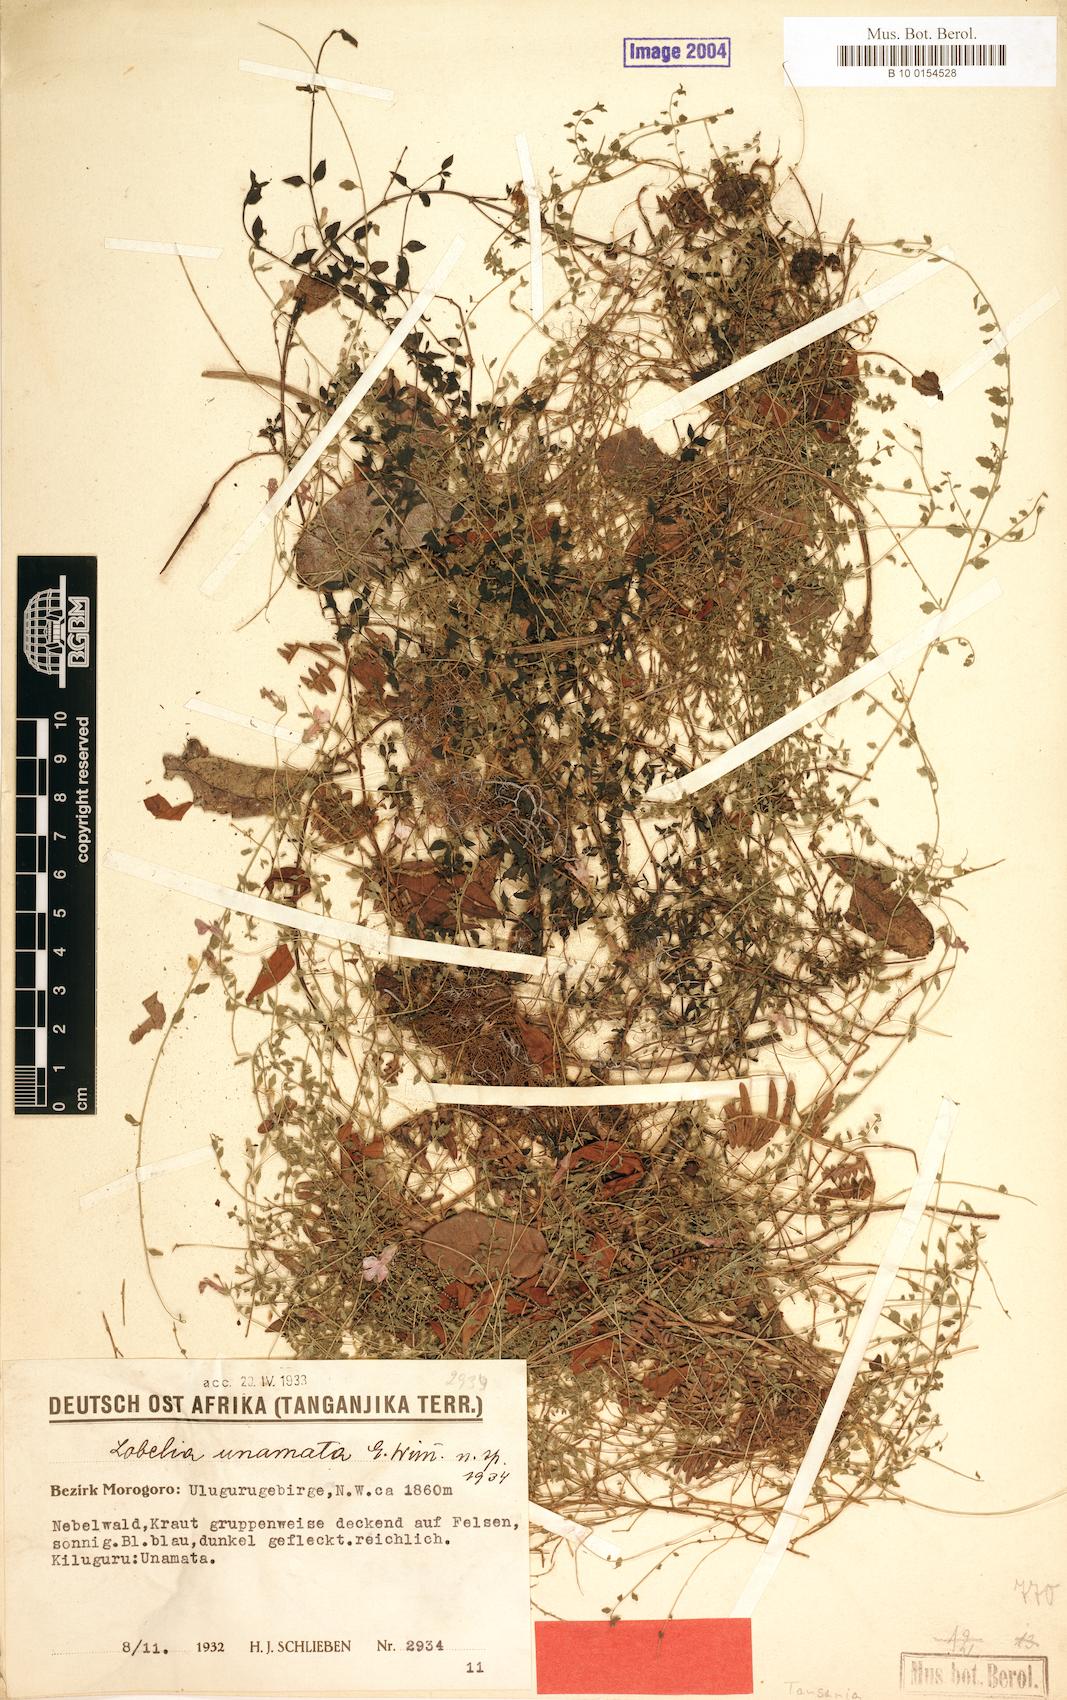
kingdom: Plantae
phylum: Tracheophyta
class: Magnoliopsida
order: Asterales
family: Campanulaceae
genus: Lobelia
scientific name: Lobelia gilgii
